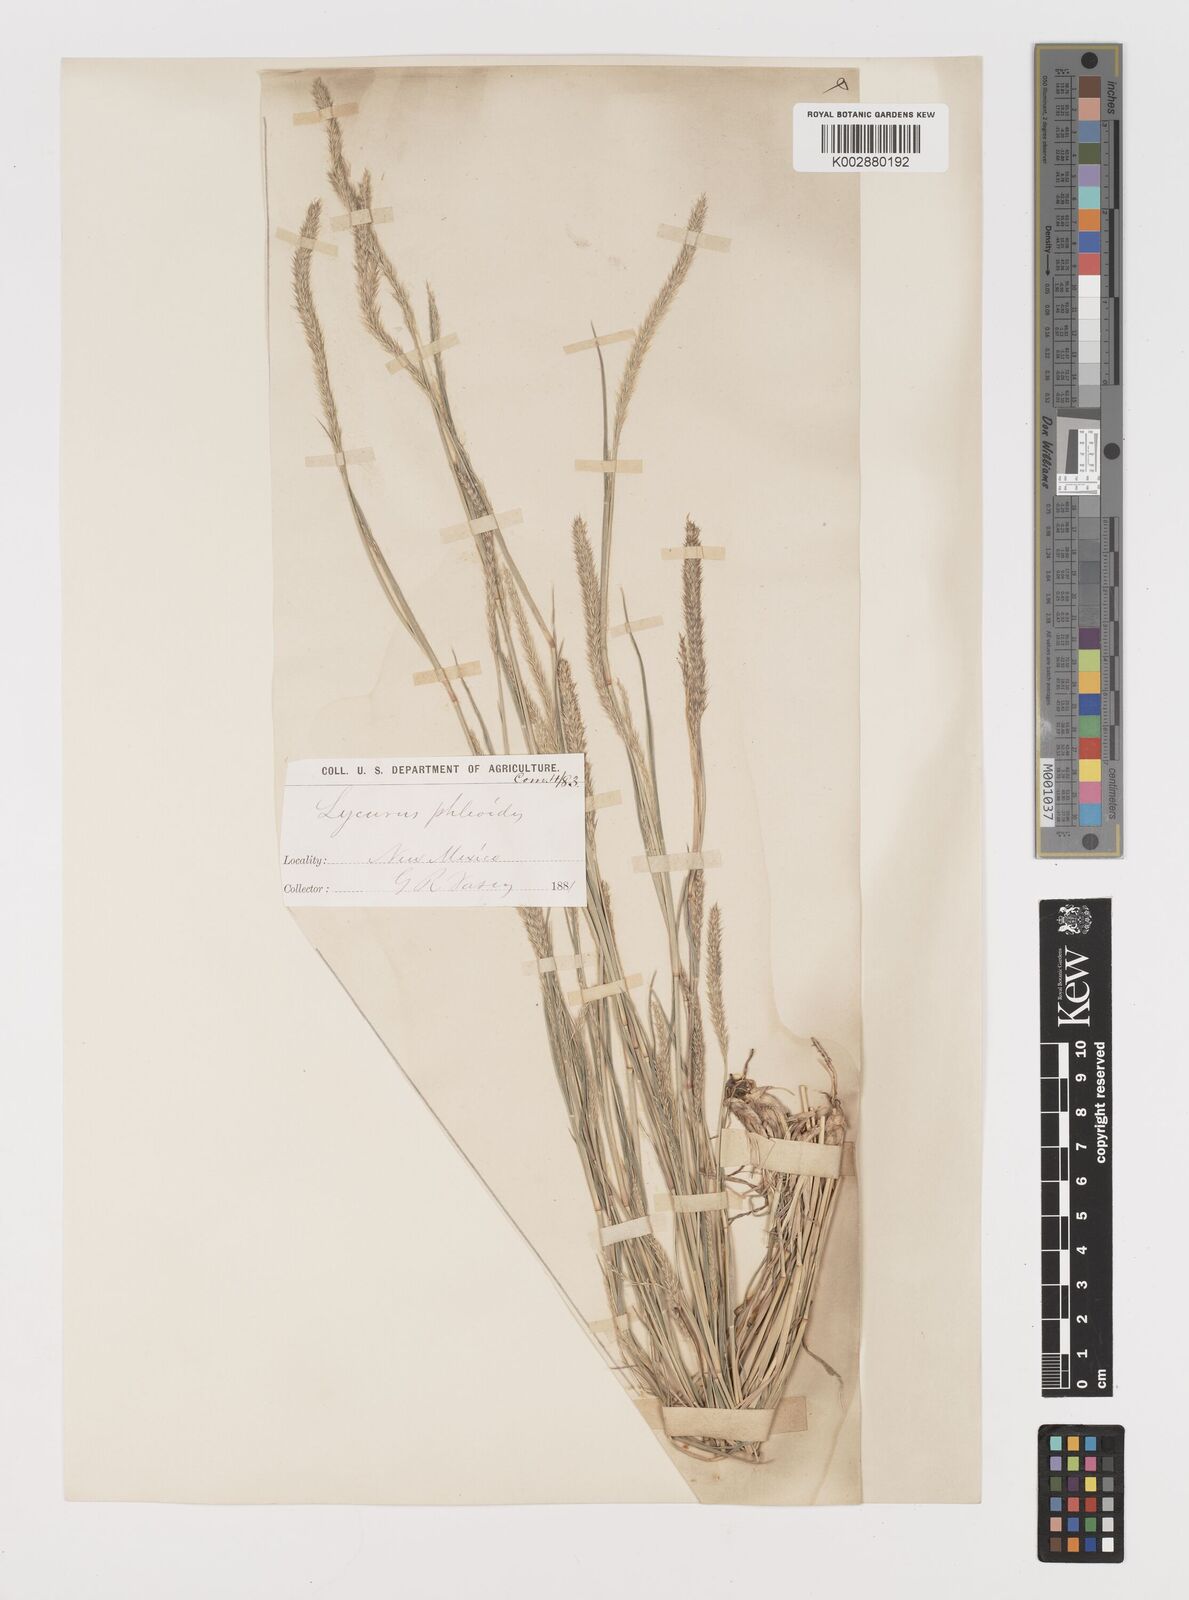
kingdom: Plantae
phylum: Tracheophyta
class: Liliopsida
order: Poales
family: Poaceae
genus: Muhlenbergia
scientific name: Muhlenbergia alopecuroides
